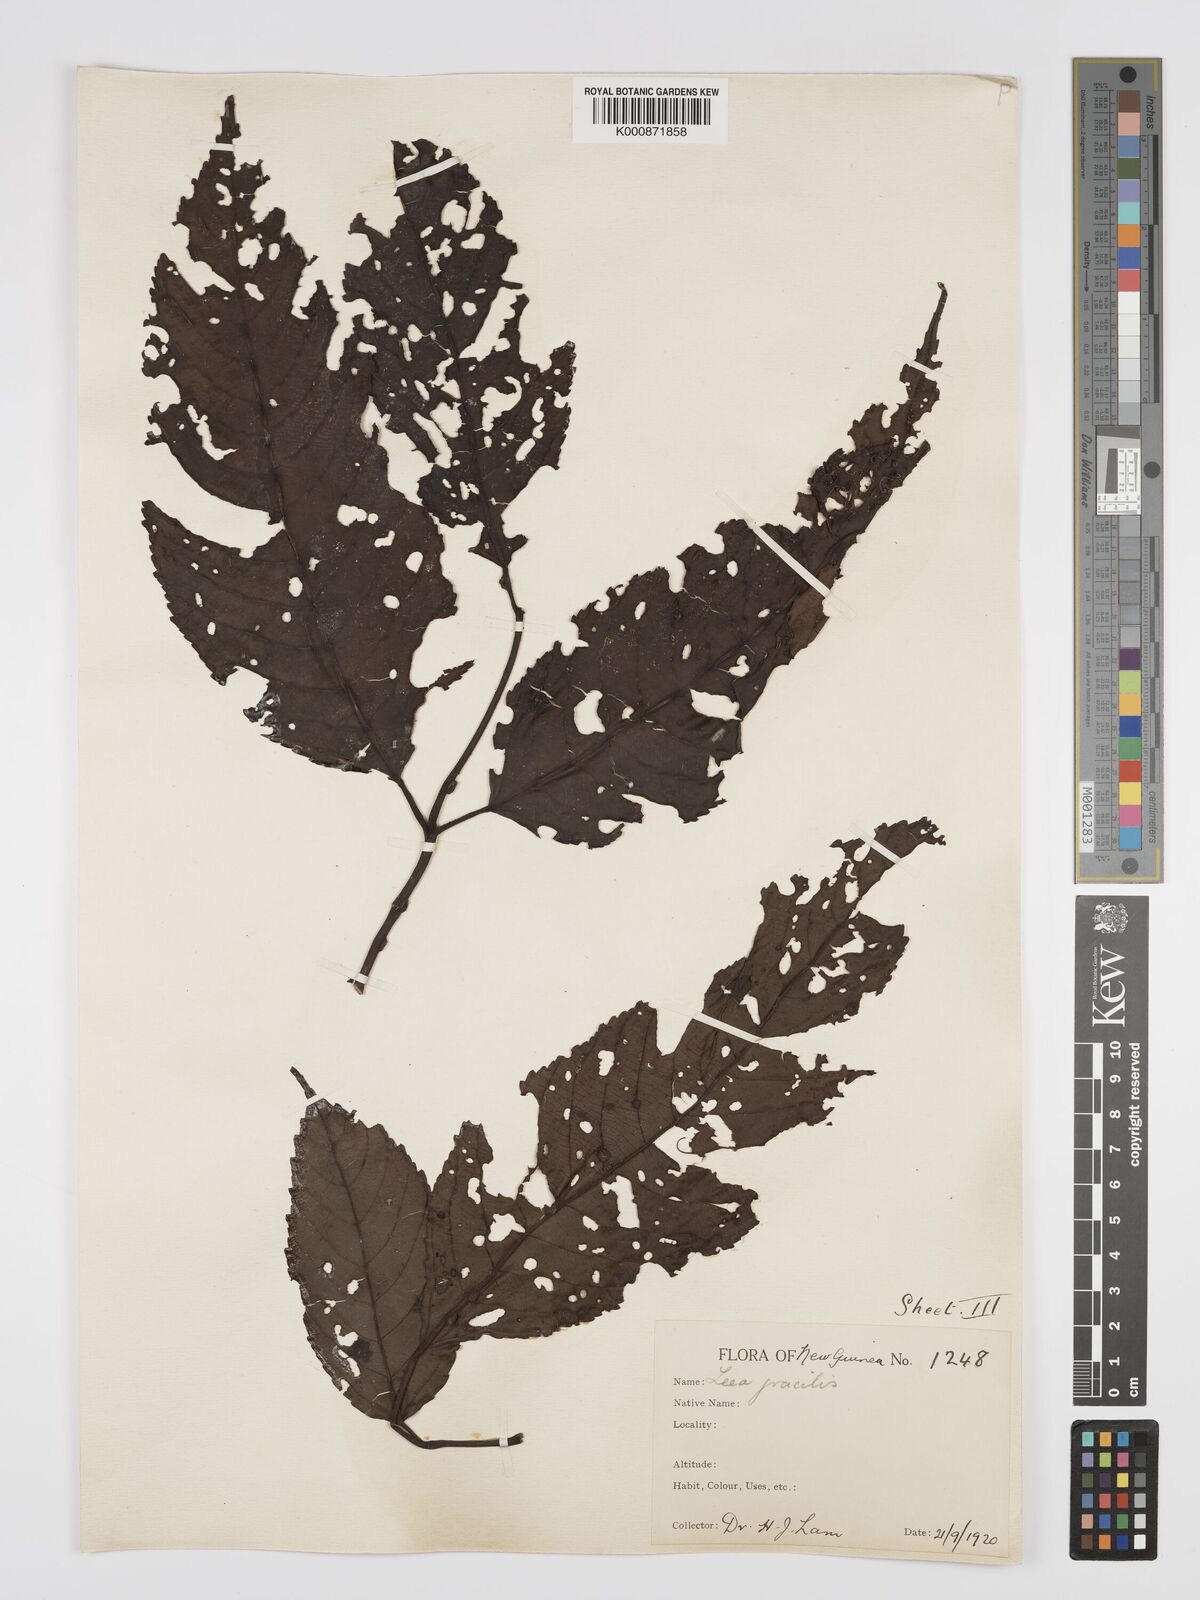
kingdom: Plantae
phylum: Tracheophyta
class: Magnoliopsida
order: Vitales
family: Vitaceae
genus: Leea
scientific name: Leea indica
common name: Bandicoot-berry
